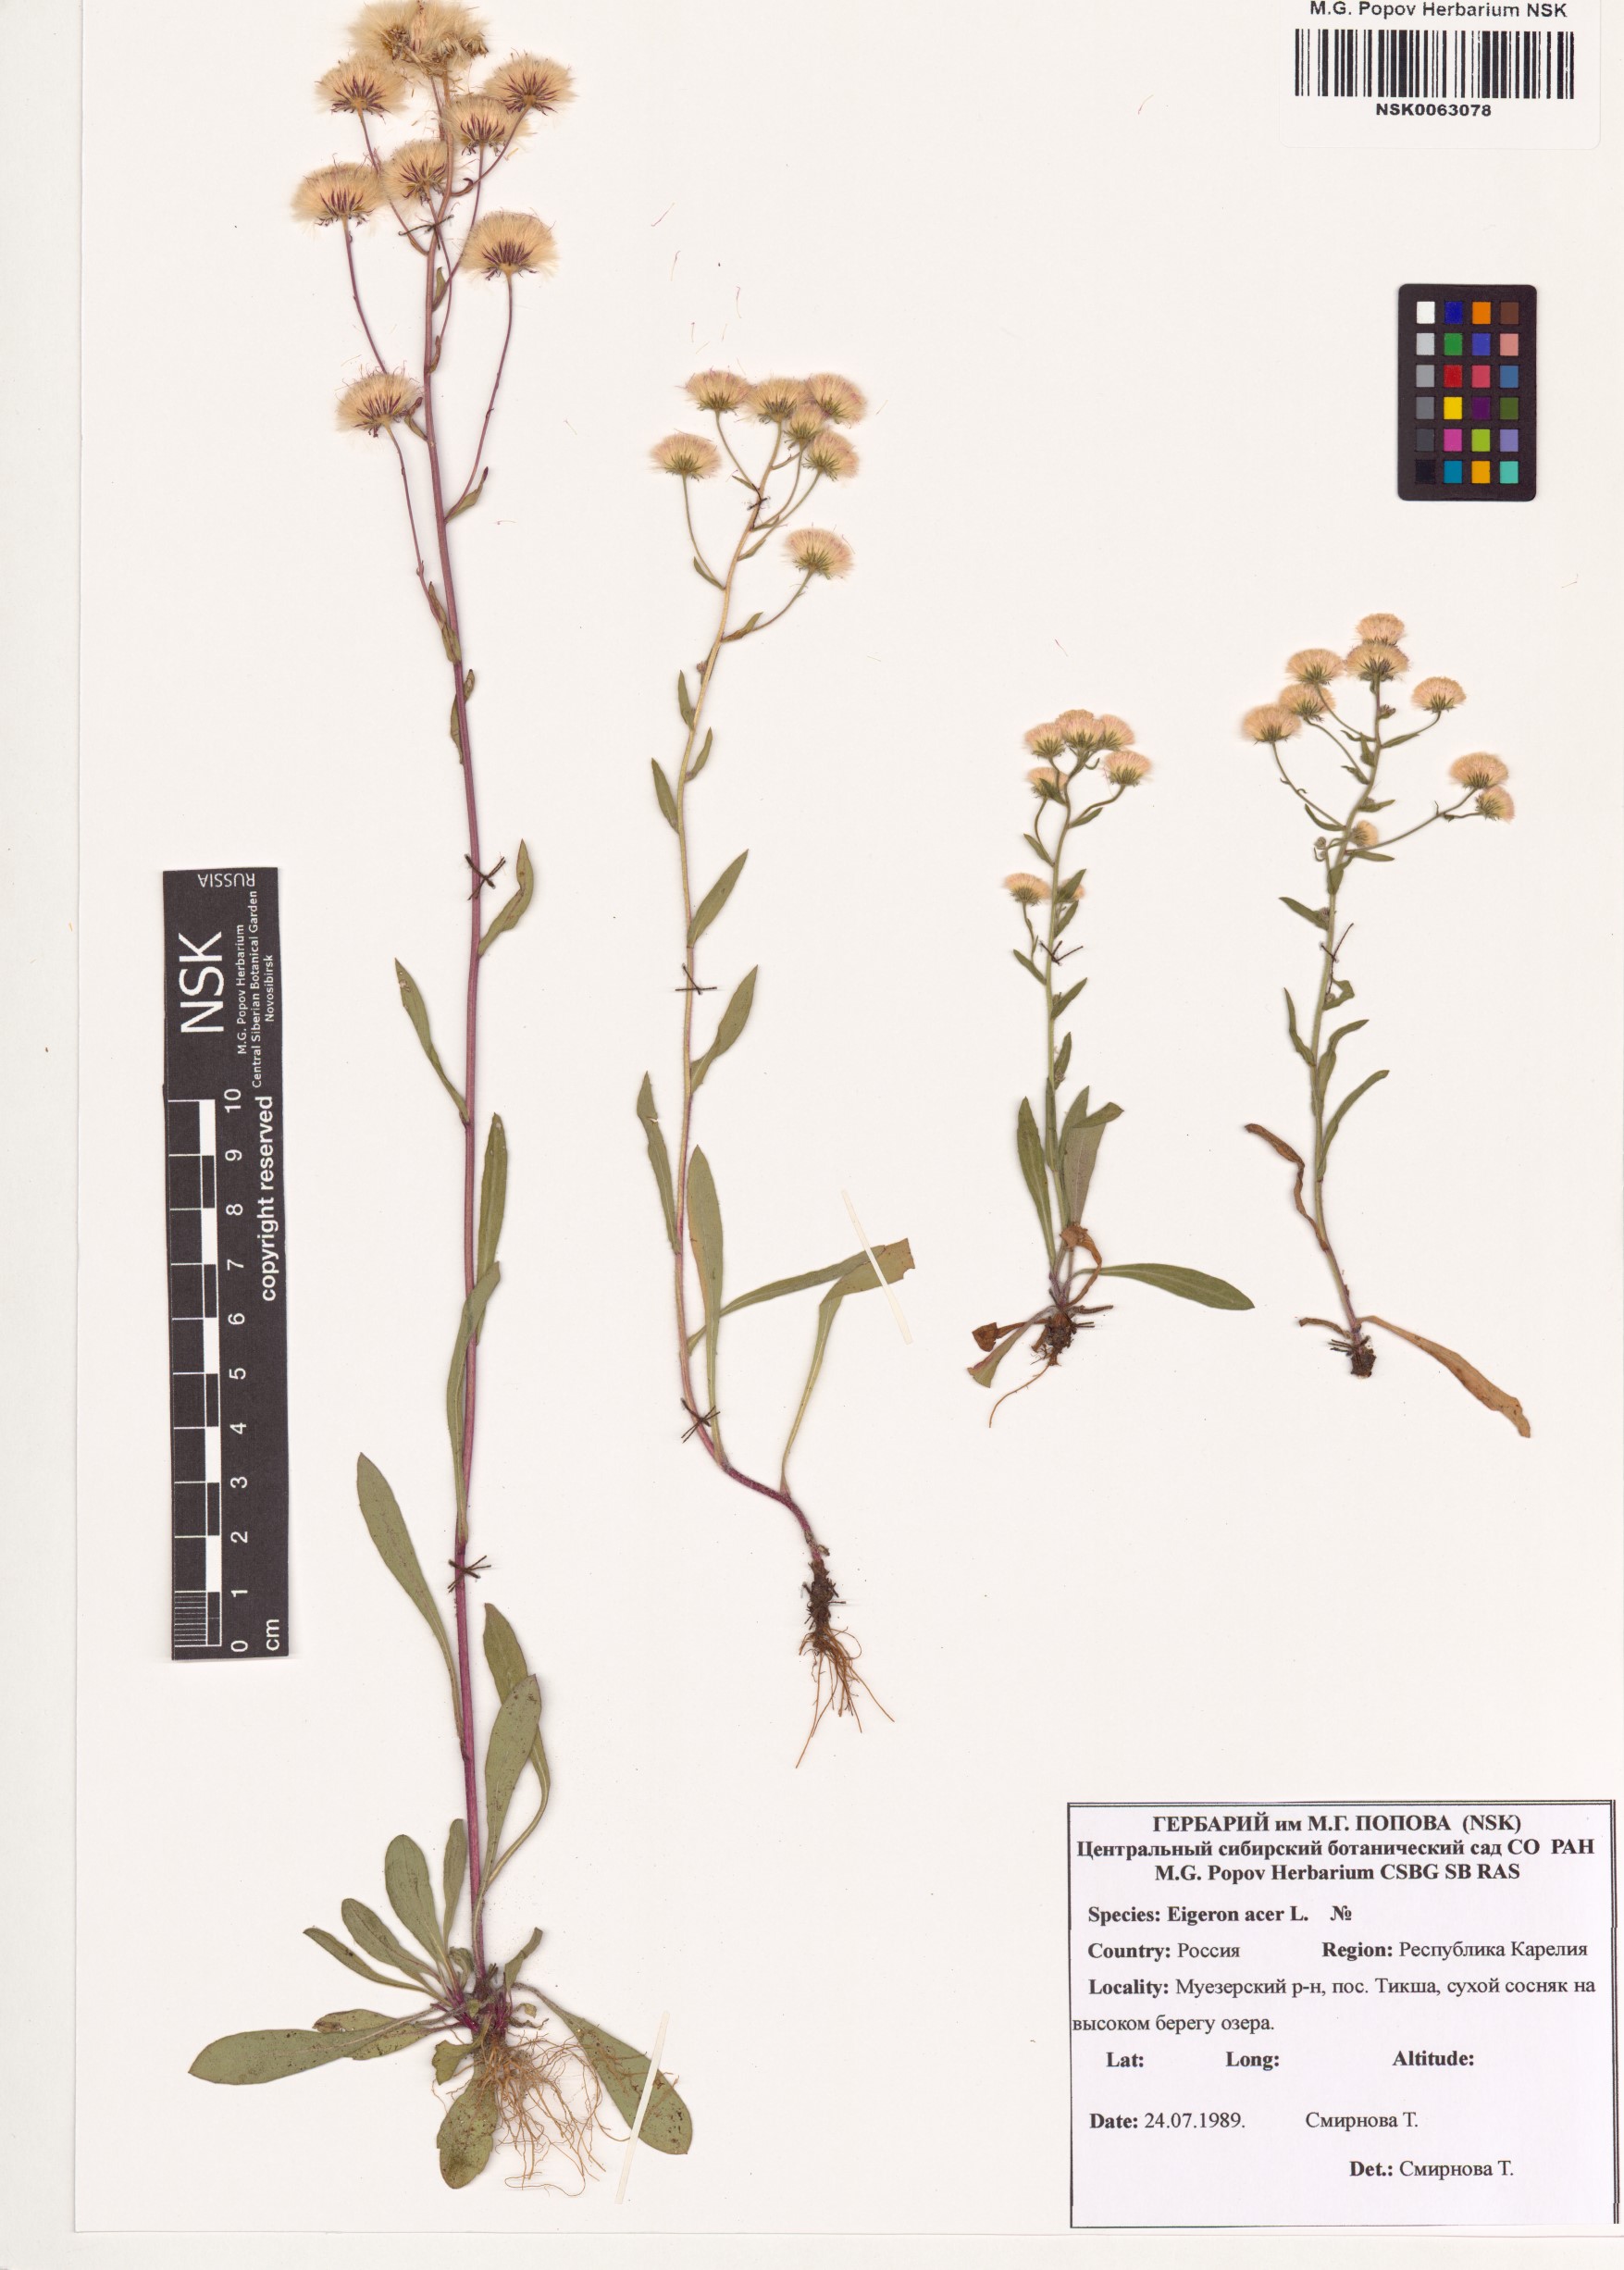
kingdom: Plantae
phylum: Tracheophyta
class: Magnoliopsida
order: Asterales
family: Asteraceae
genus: Erigeron
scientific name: Erigeron acris
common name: Blue fleabane
